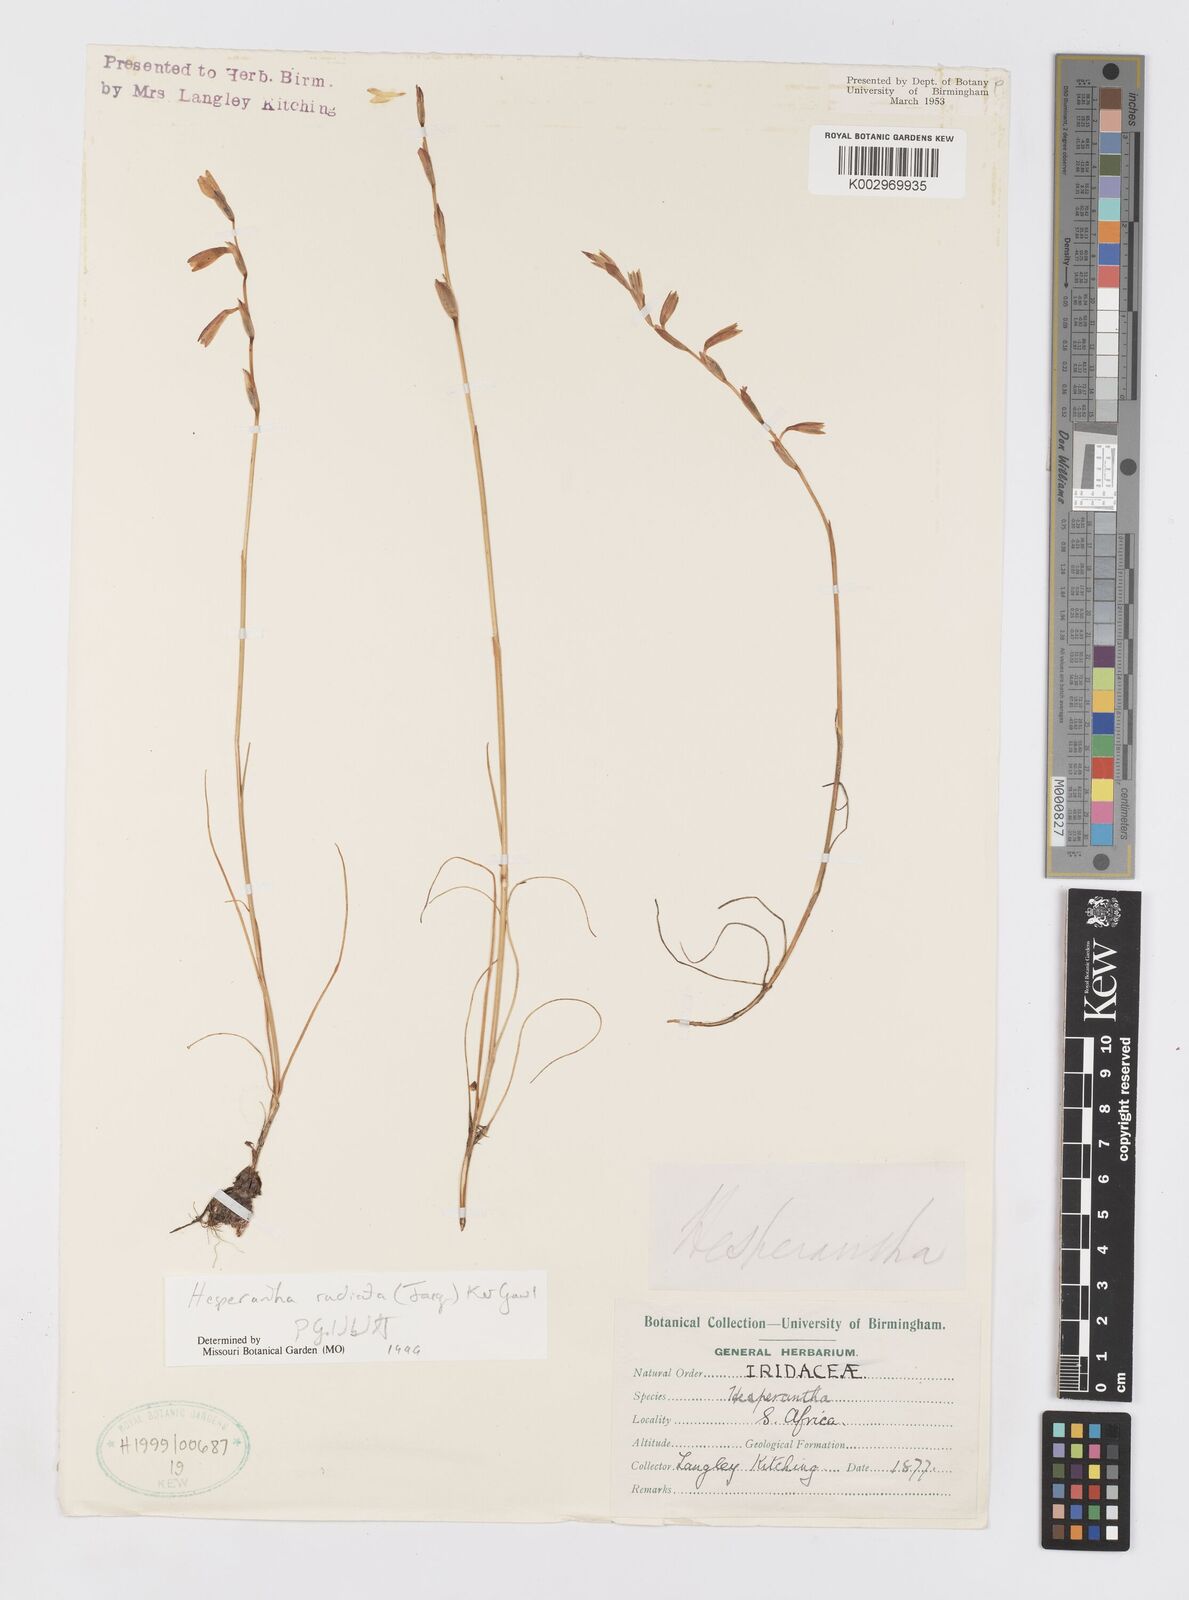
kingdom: Plantae
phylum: Tracheophyta
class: Liliopsida
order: Asparagales
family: Iridaceae
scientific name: Iridaceae
